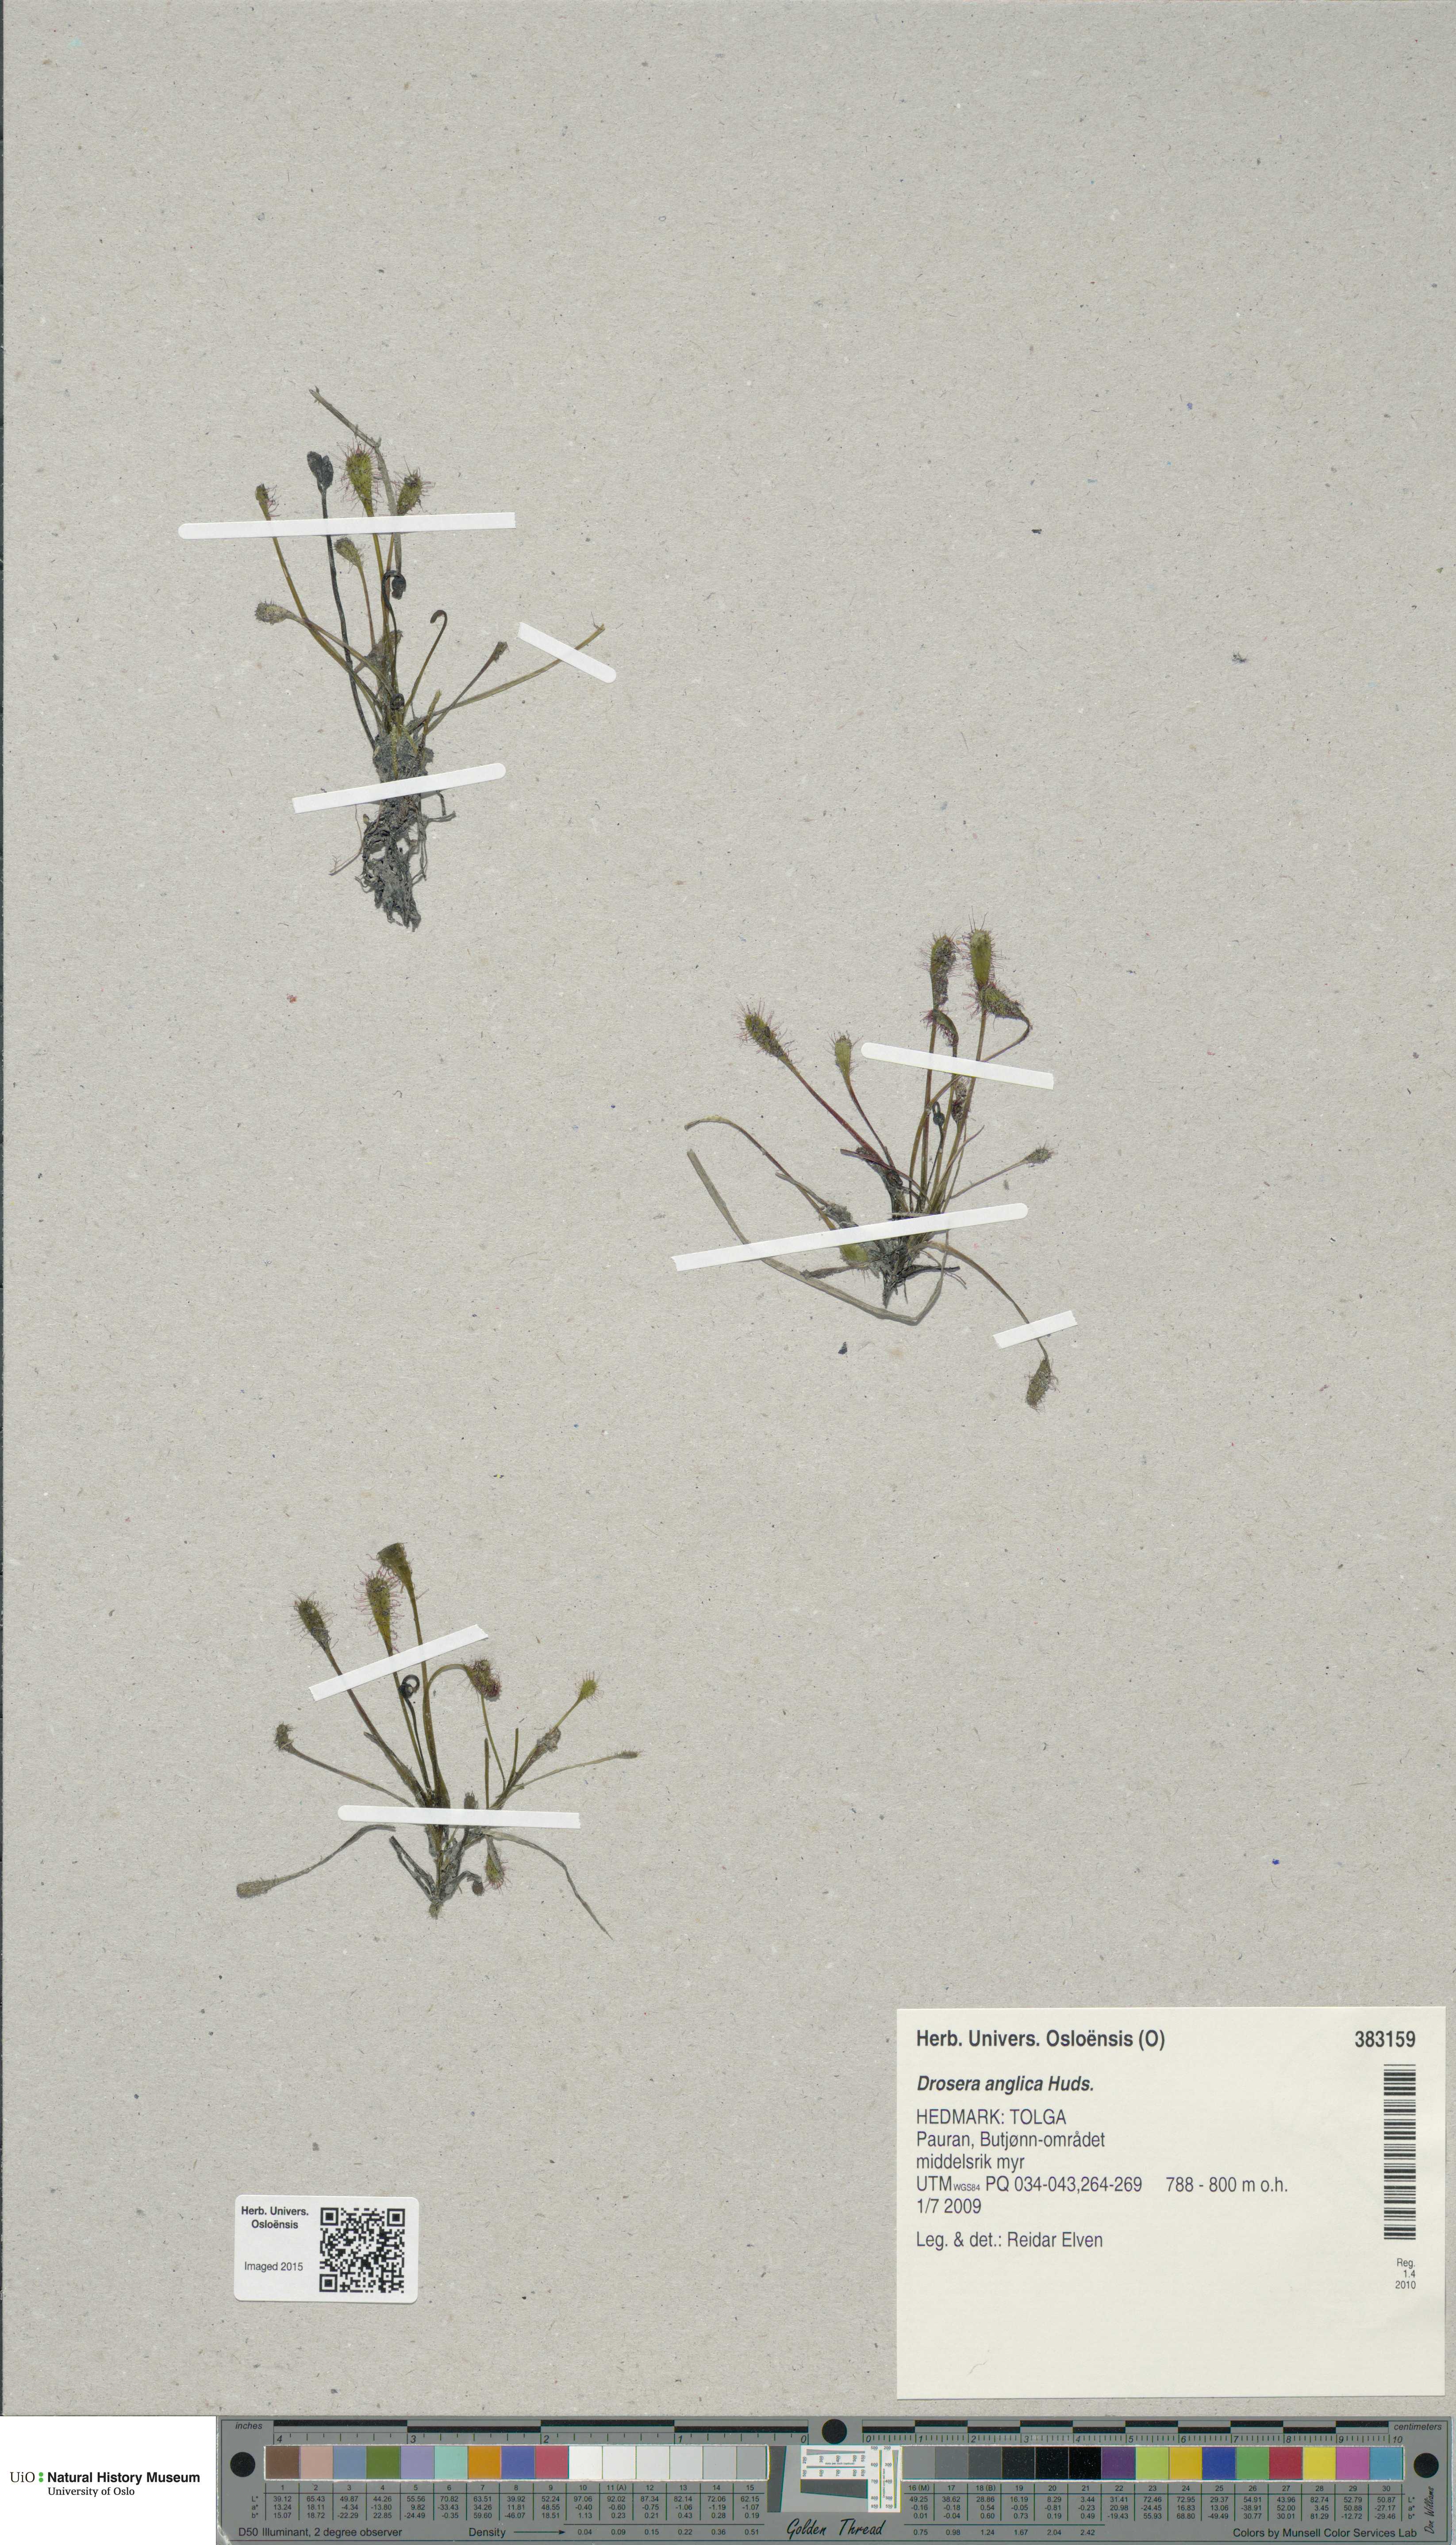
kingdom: Plantae
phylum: Tracheophyta
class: Magnoliopsida
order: Caryophyllales
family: Droseraceae
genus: Drosera
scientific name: Drosera anglica
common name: Great sundew
